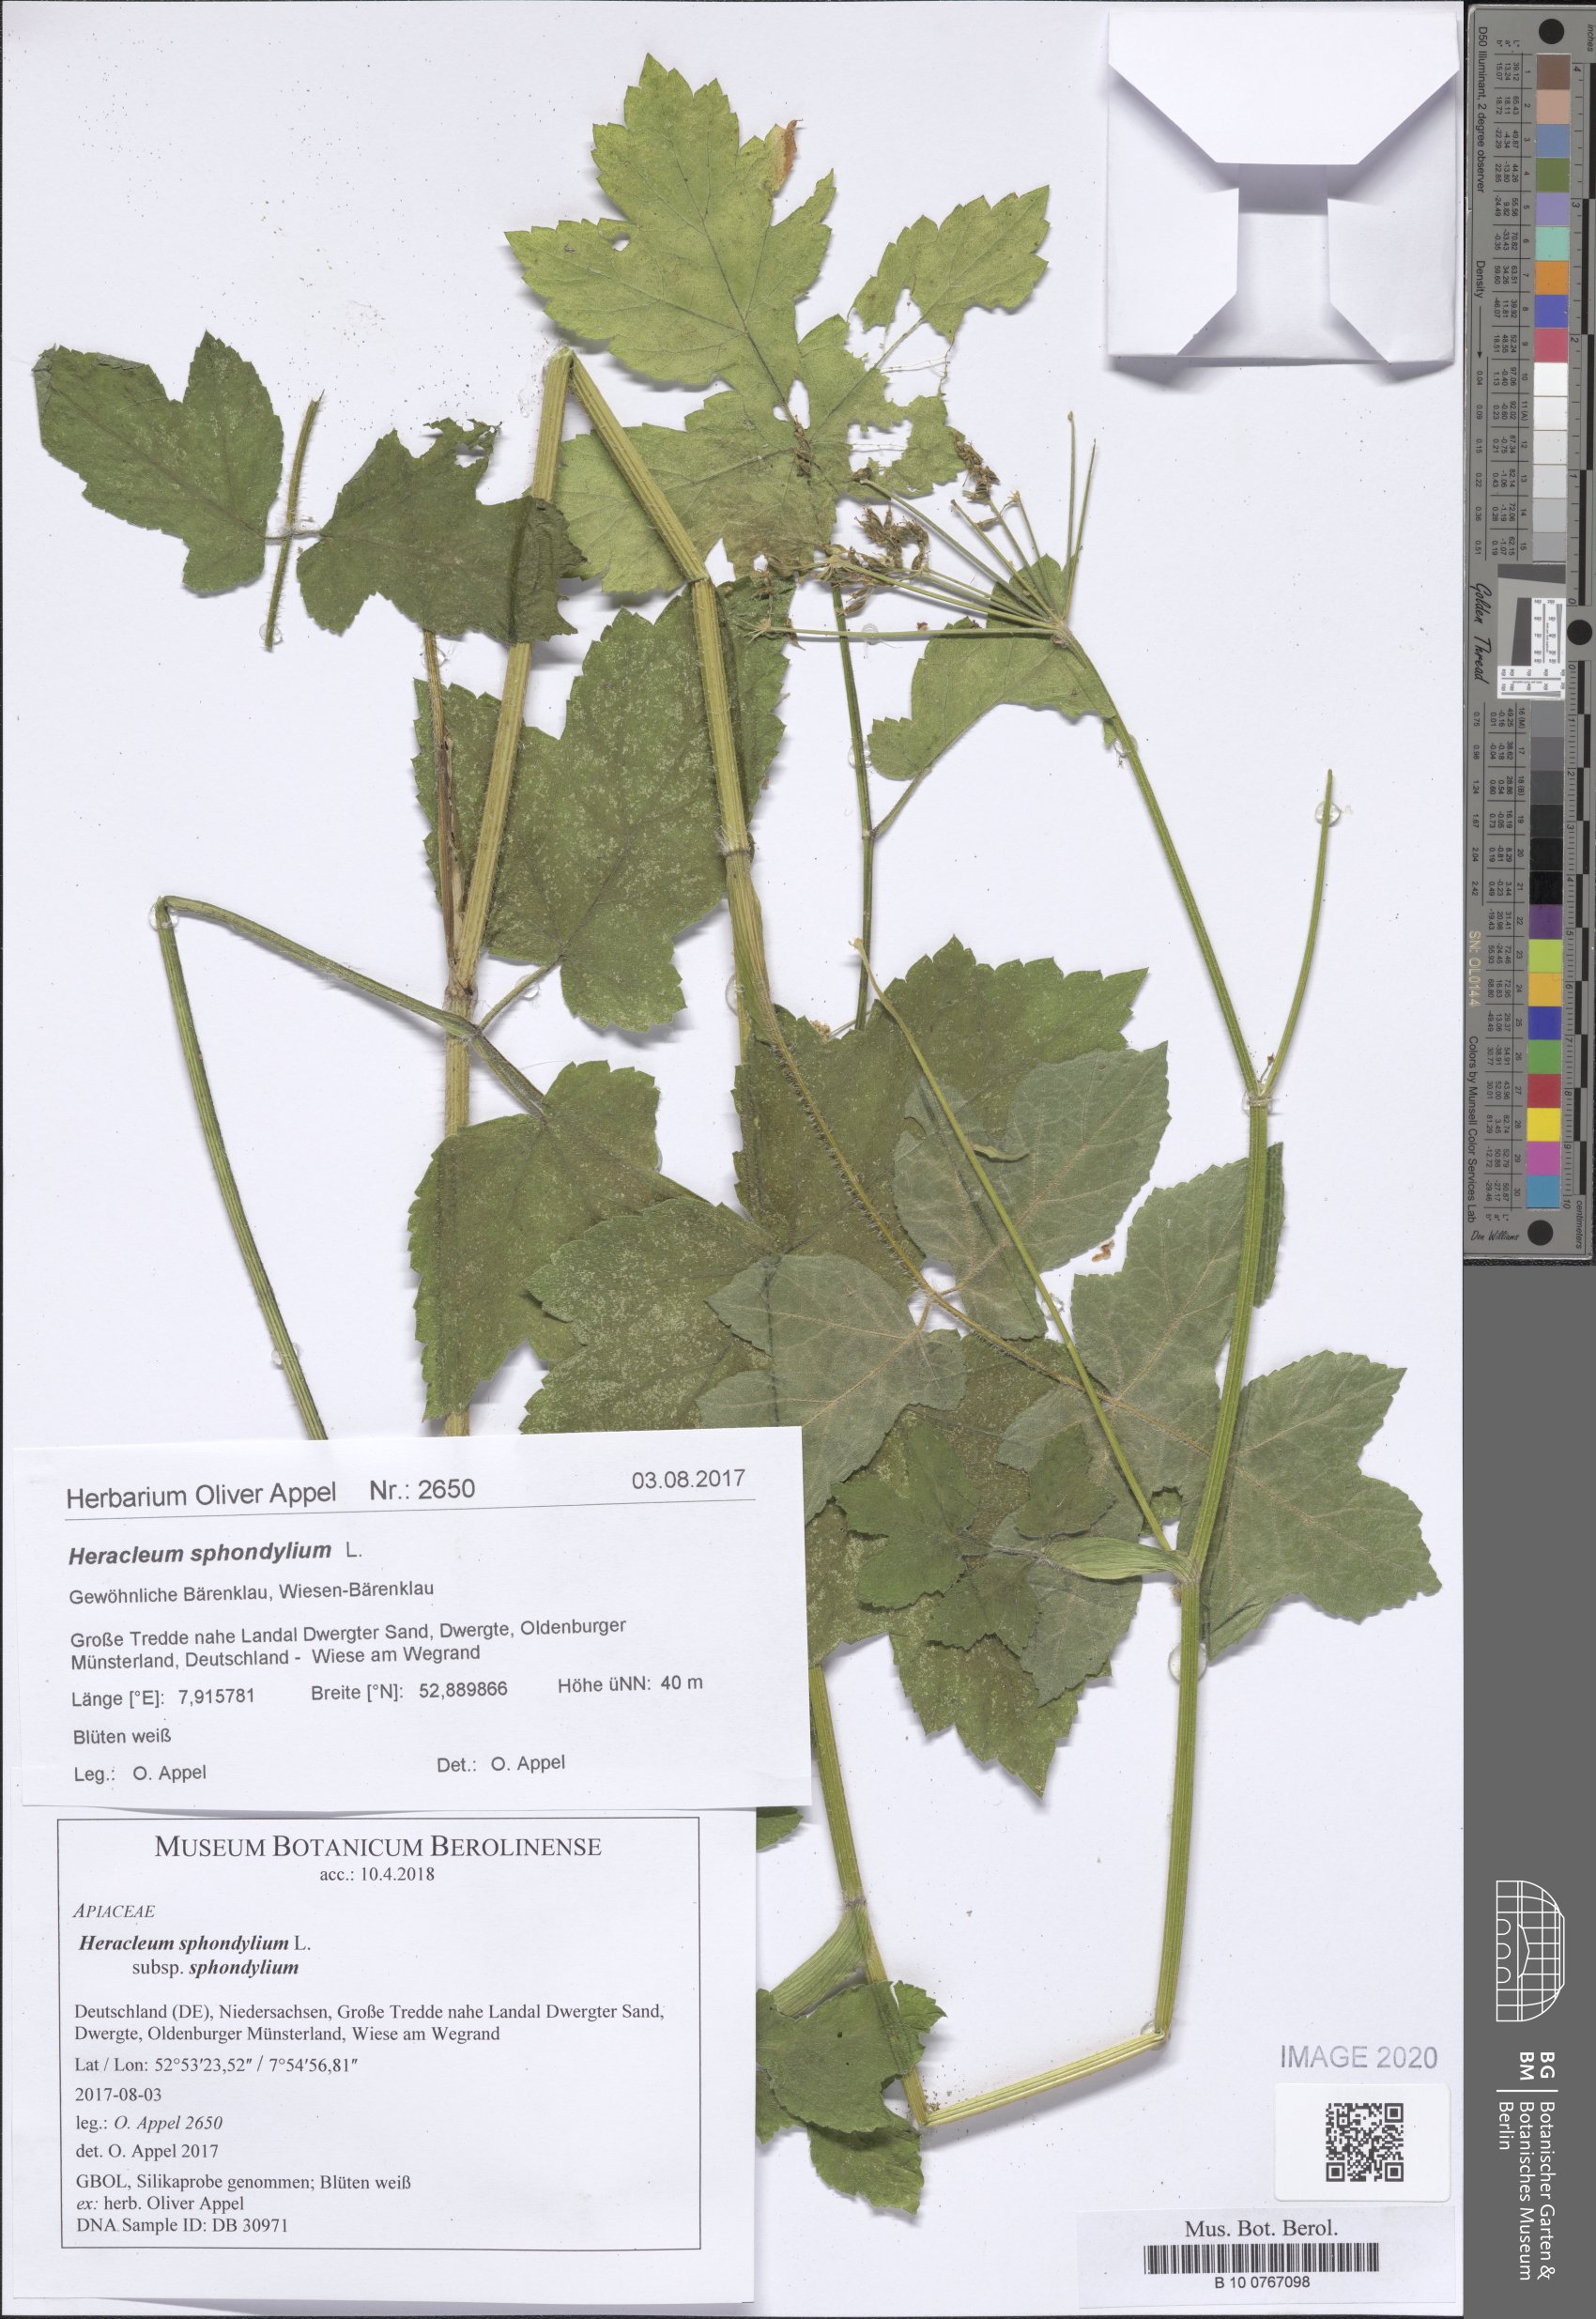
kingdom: Plantae
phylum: Tracheophyta
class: Magnoliopsida
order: Apiales
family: Apiaceae
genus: Heracleum
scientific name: Heracleum sphondylium
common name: Hogweed
